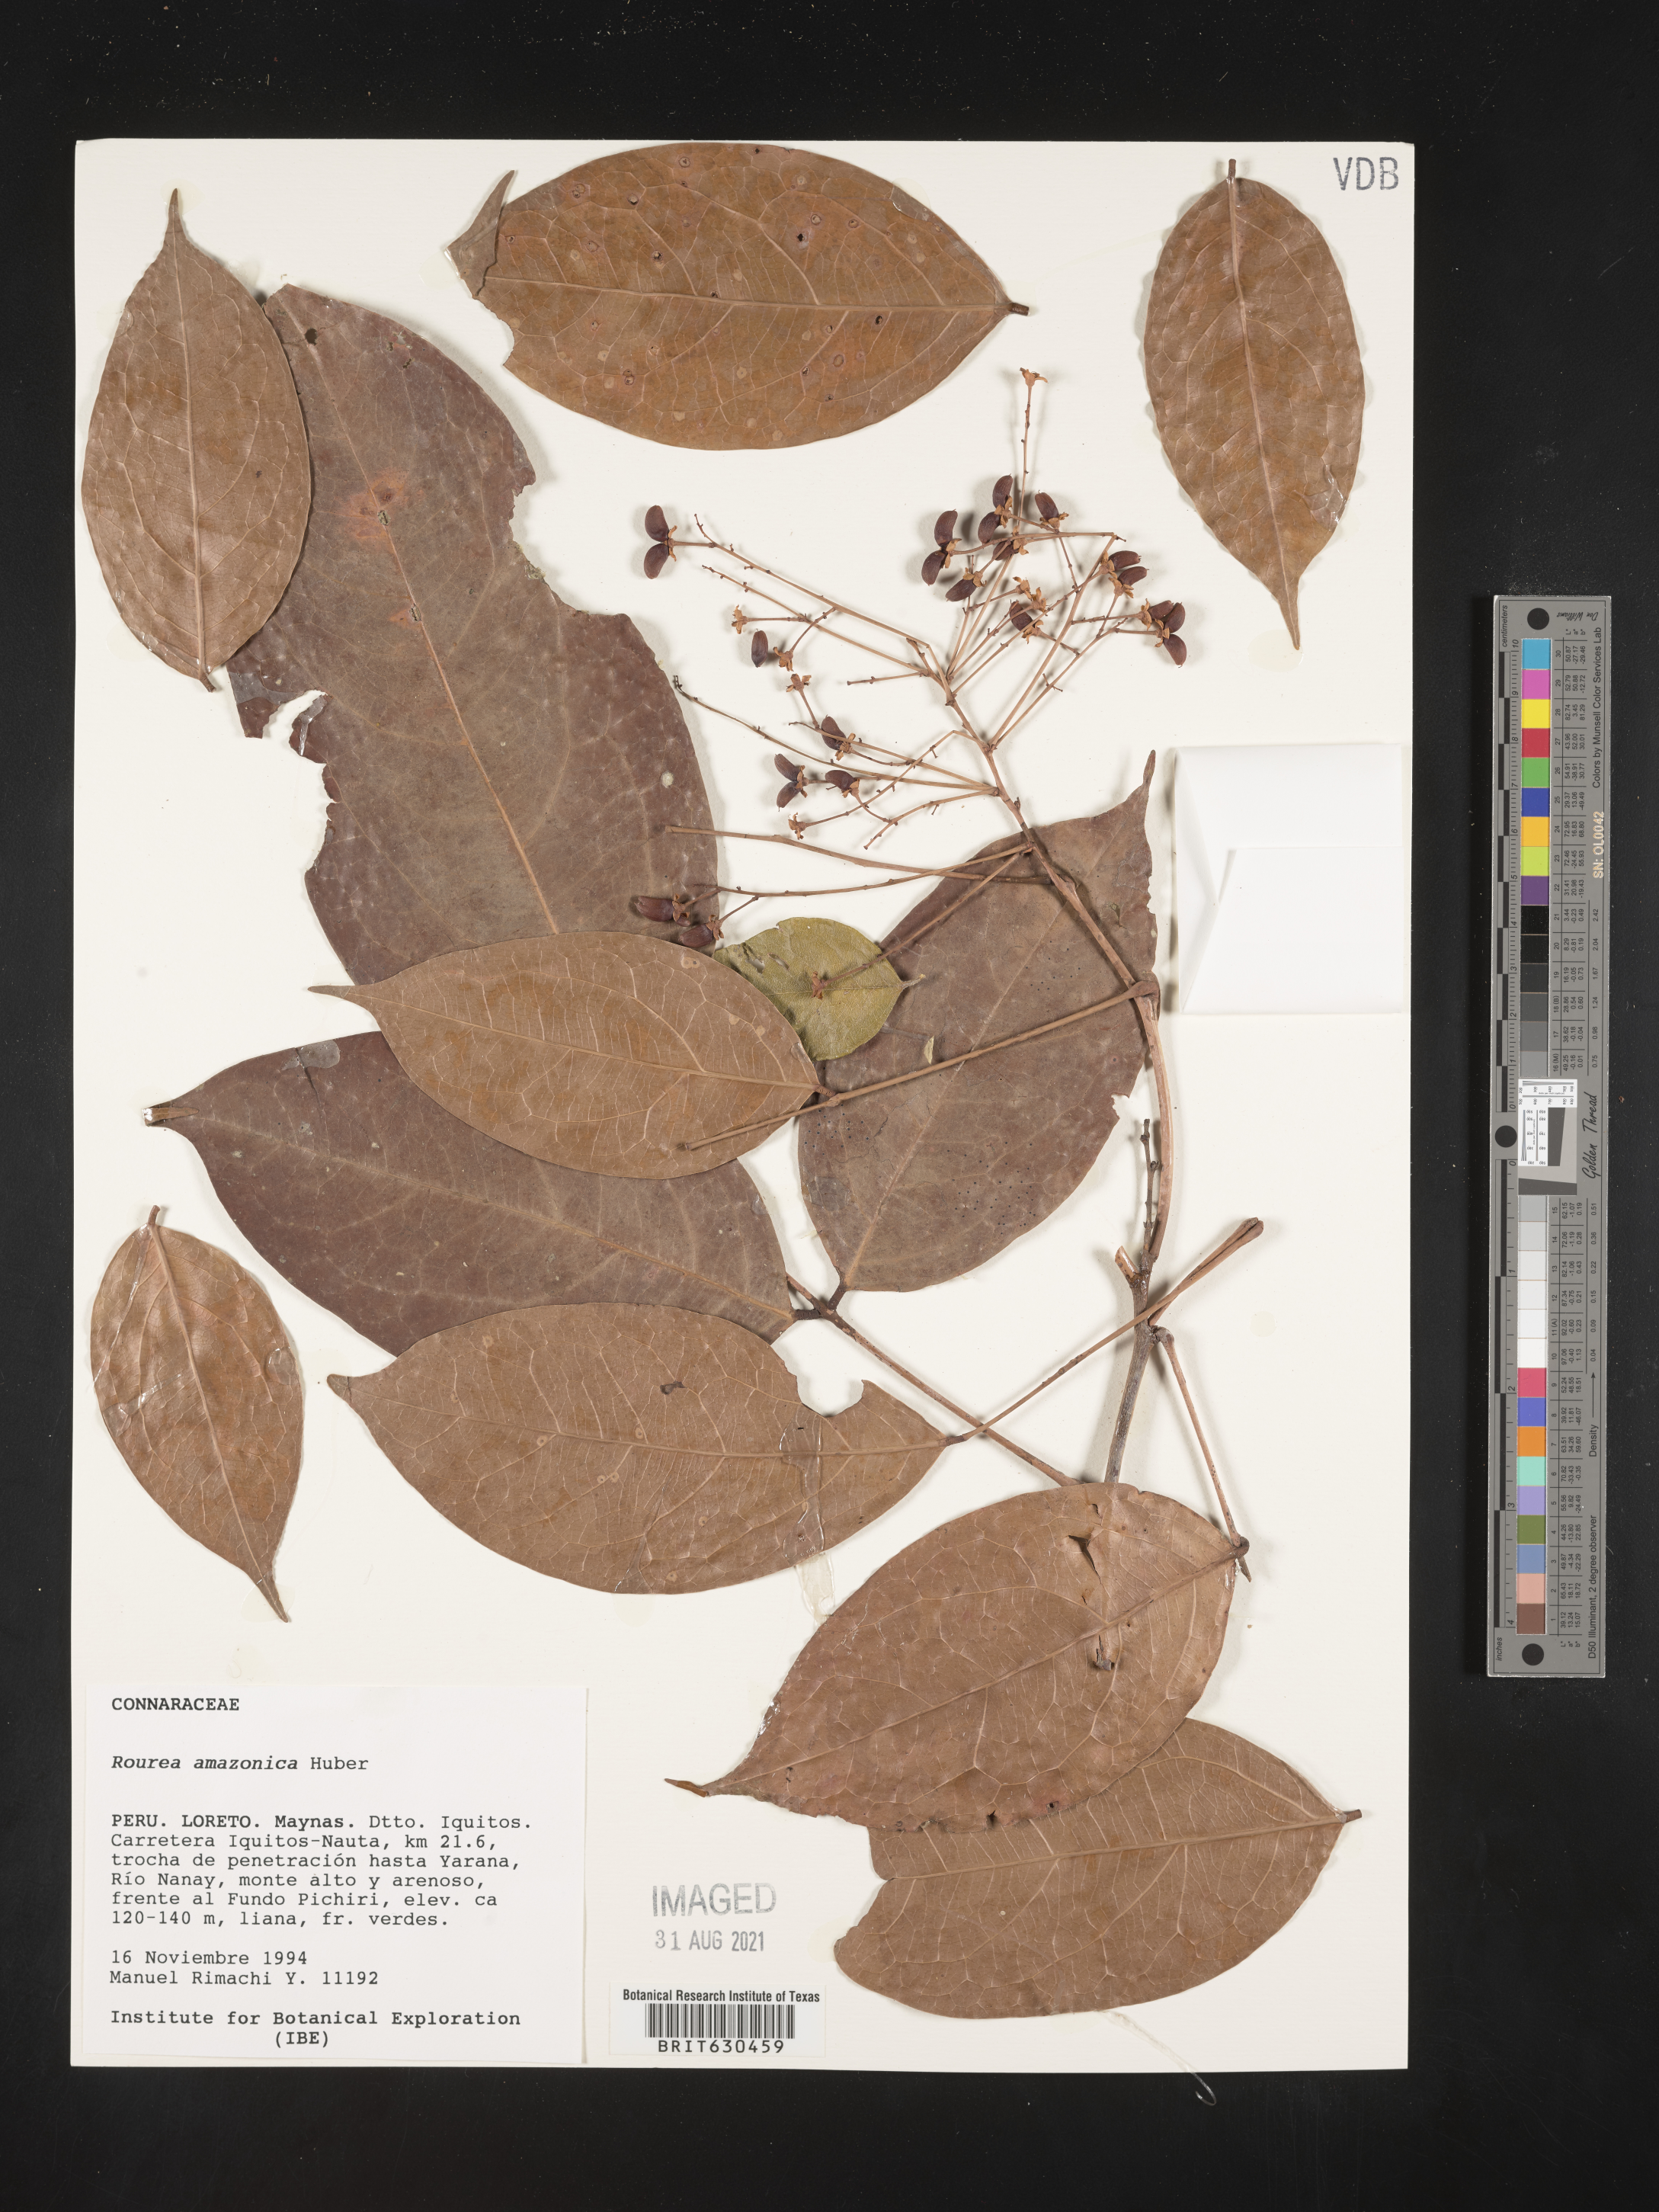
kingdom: Plantae
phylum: Tracheophyta
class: Magnoliopsida
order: Oxalidales
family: Connaraceae
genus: Rourea
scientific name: Rourea amazonica
